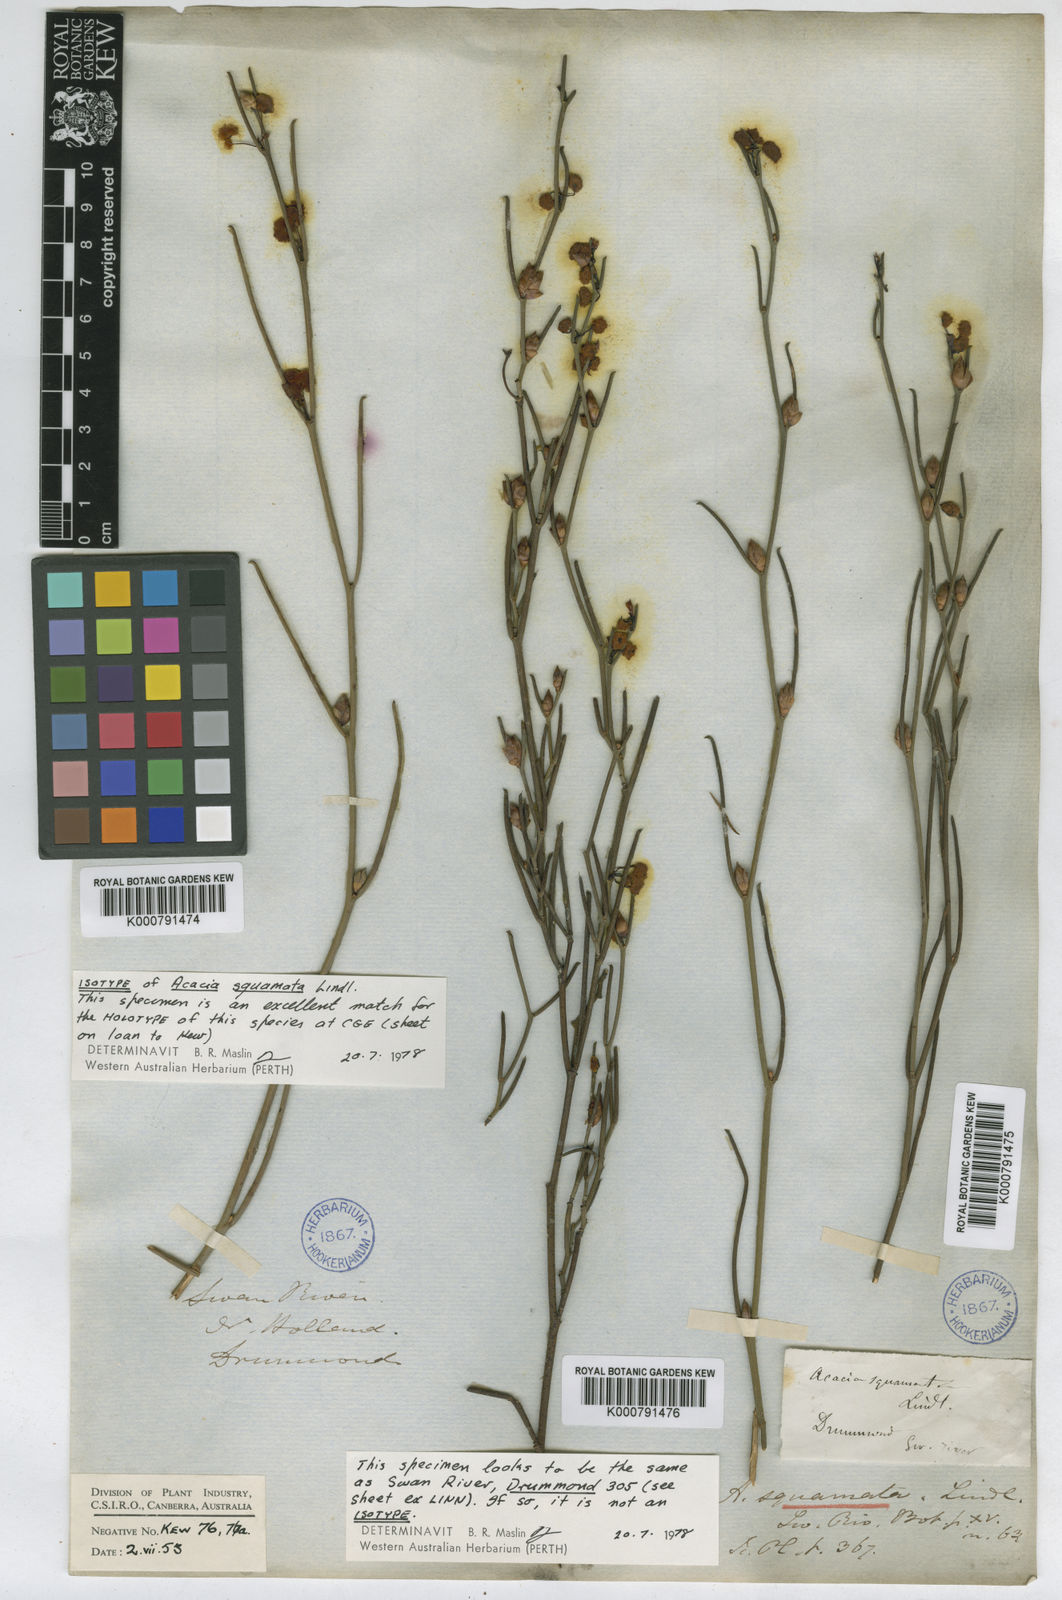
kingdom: Plantae
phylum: Tracheophyta
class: Magnoliopsida
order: Fabales
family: Fabaceae
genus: Acacia
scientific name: Acacia squamata
